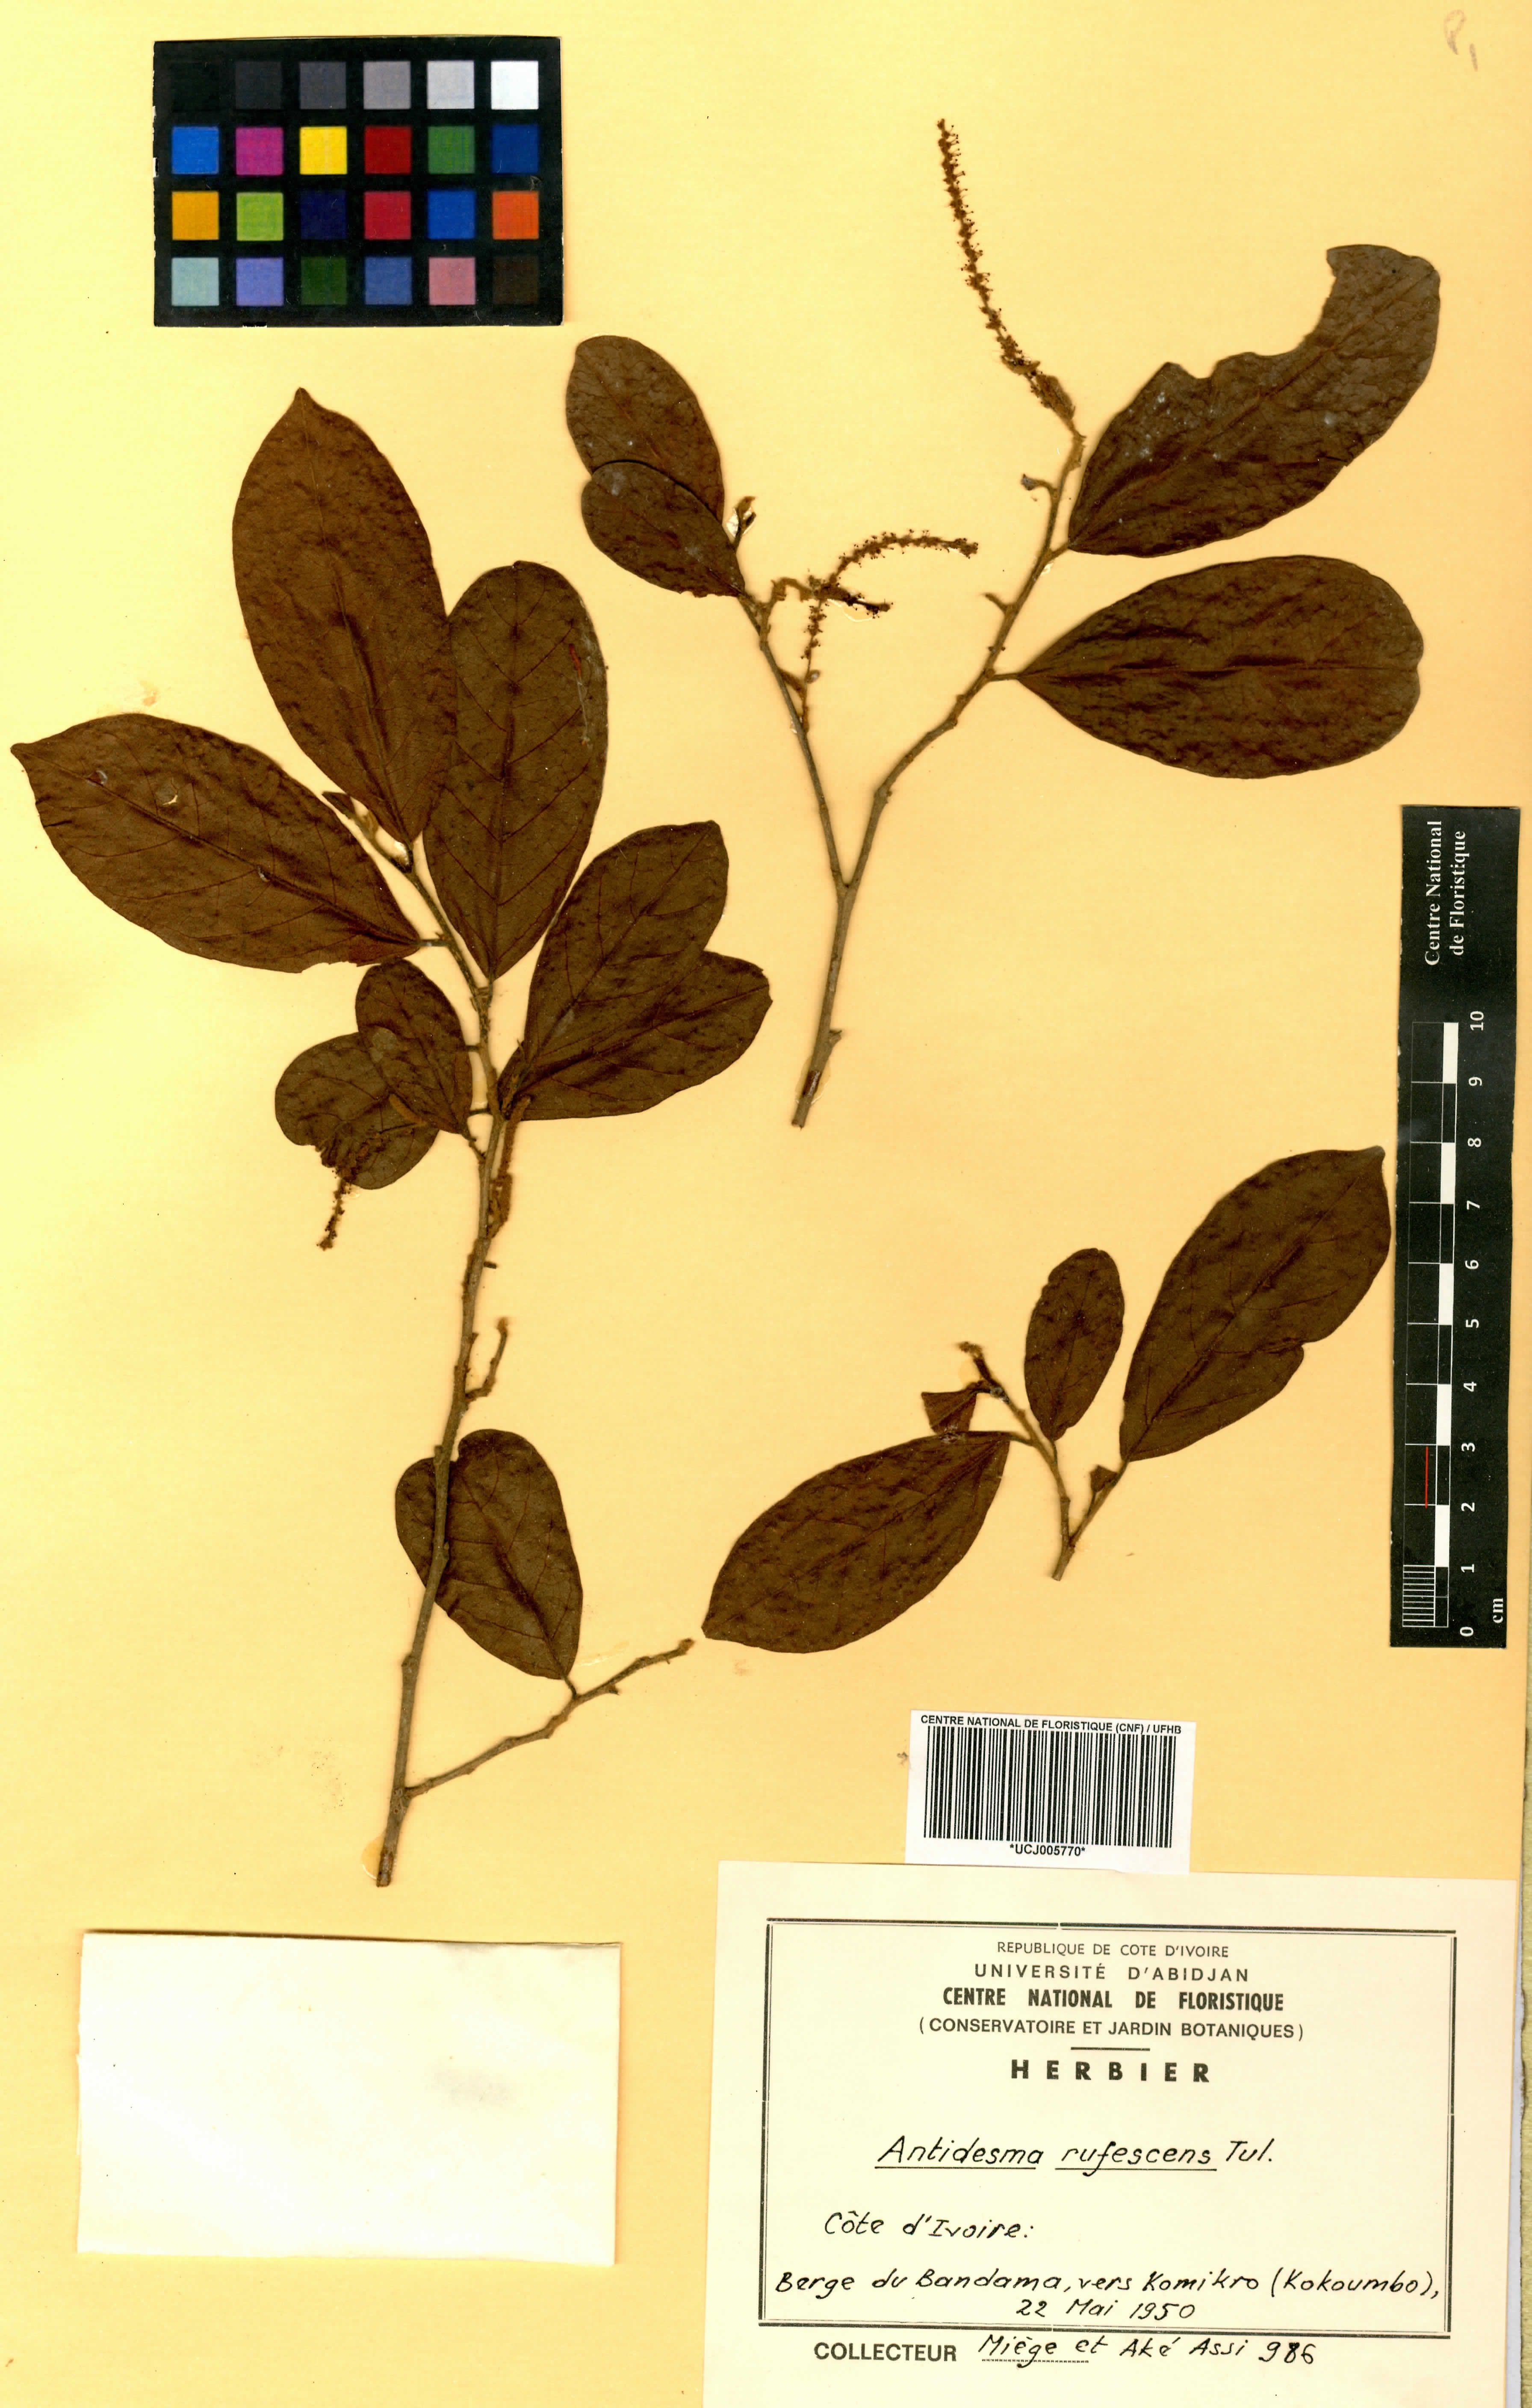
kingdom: Plantae
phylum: Tracheophyta
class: Magnoliopsida
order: Malpighiales
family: Phyllanthaceae
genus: Antidesma
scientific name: Antidesma rufescens
